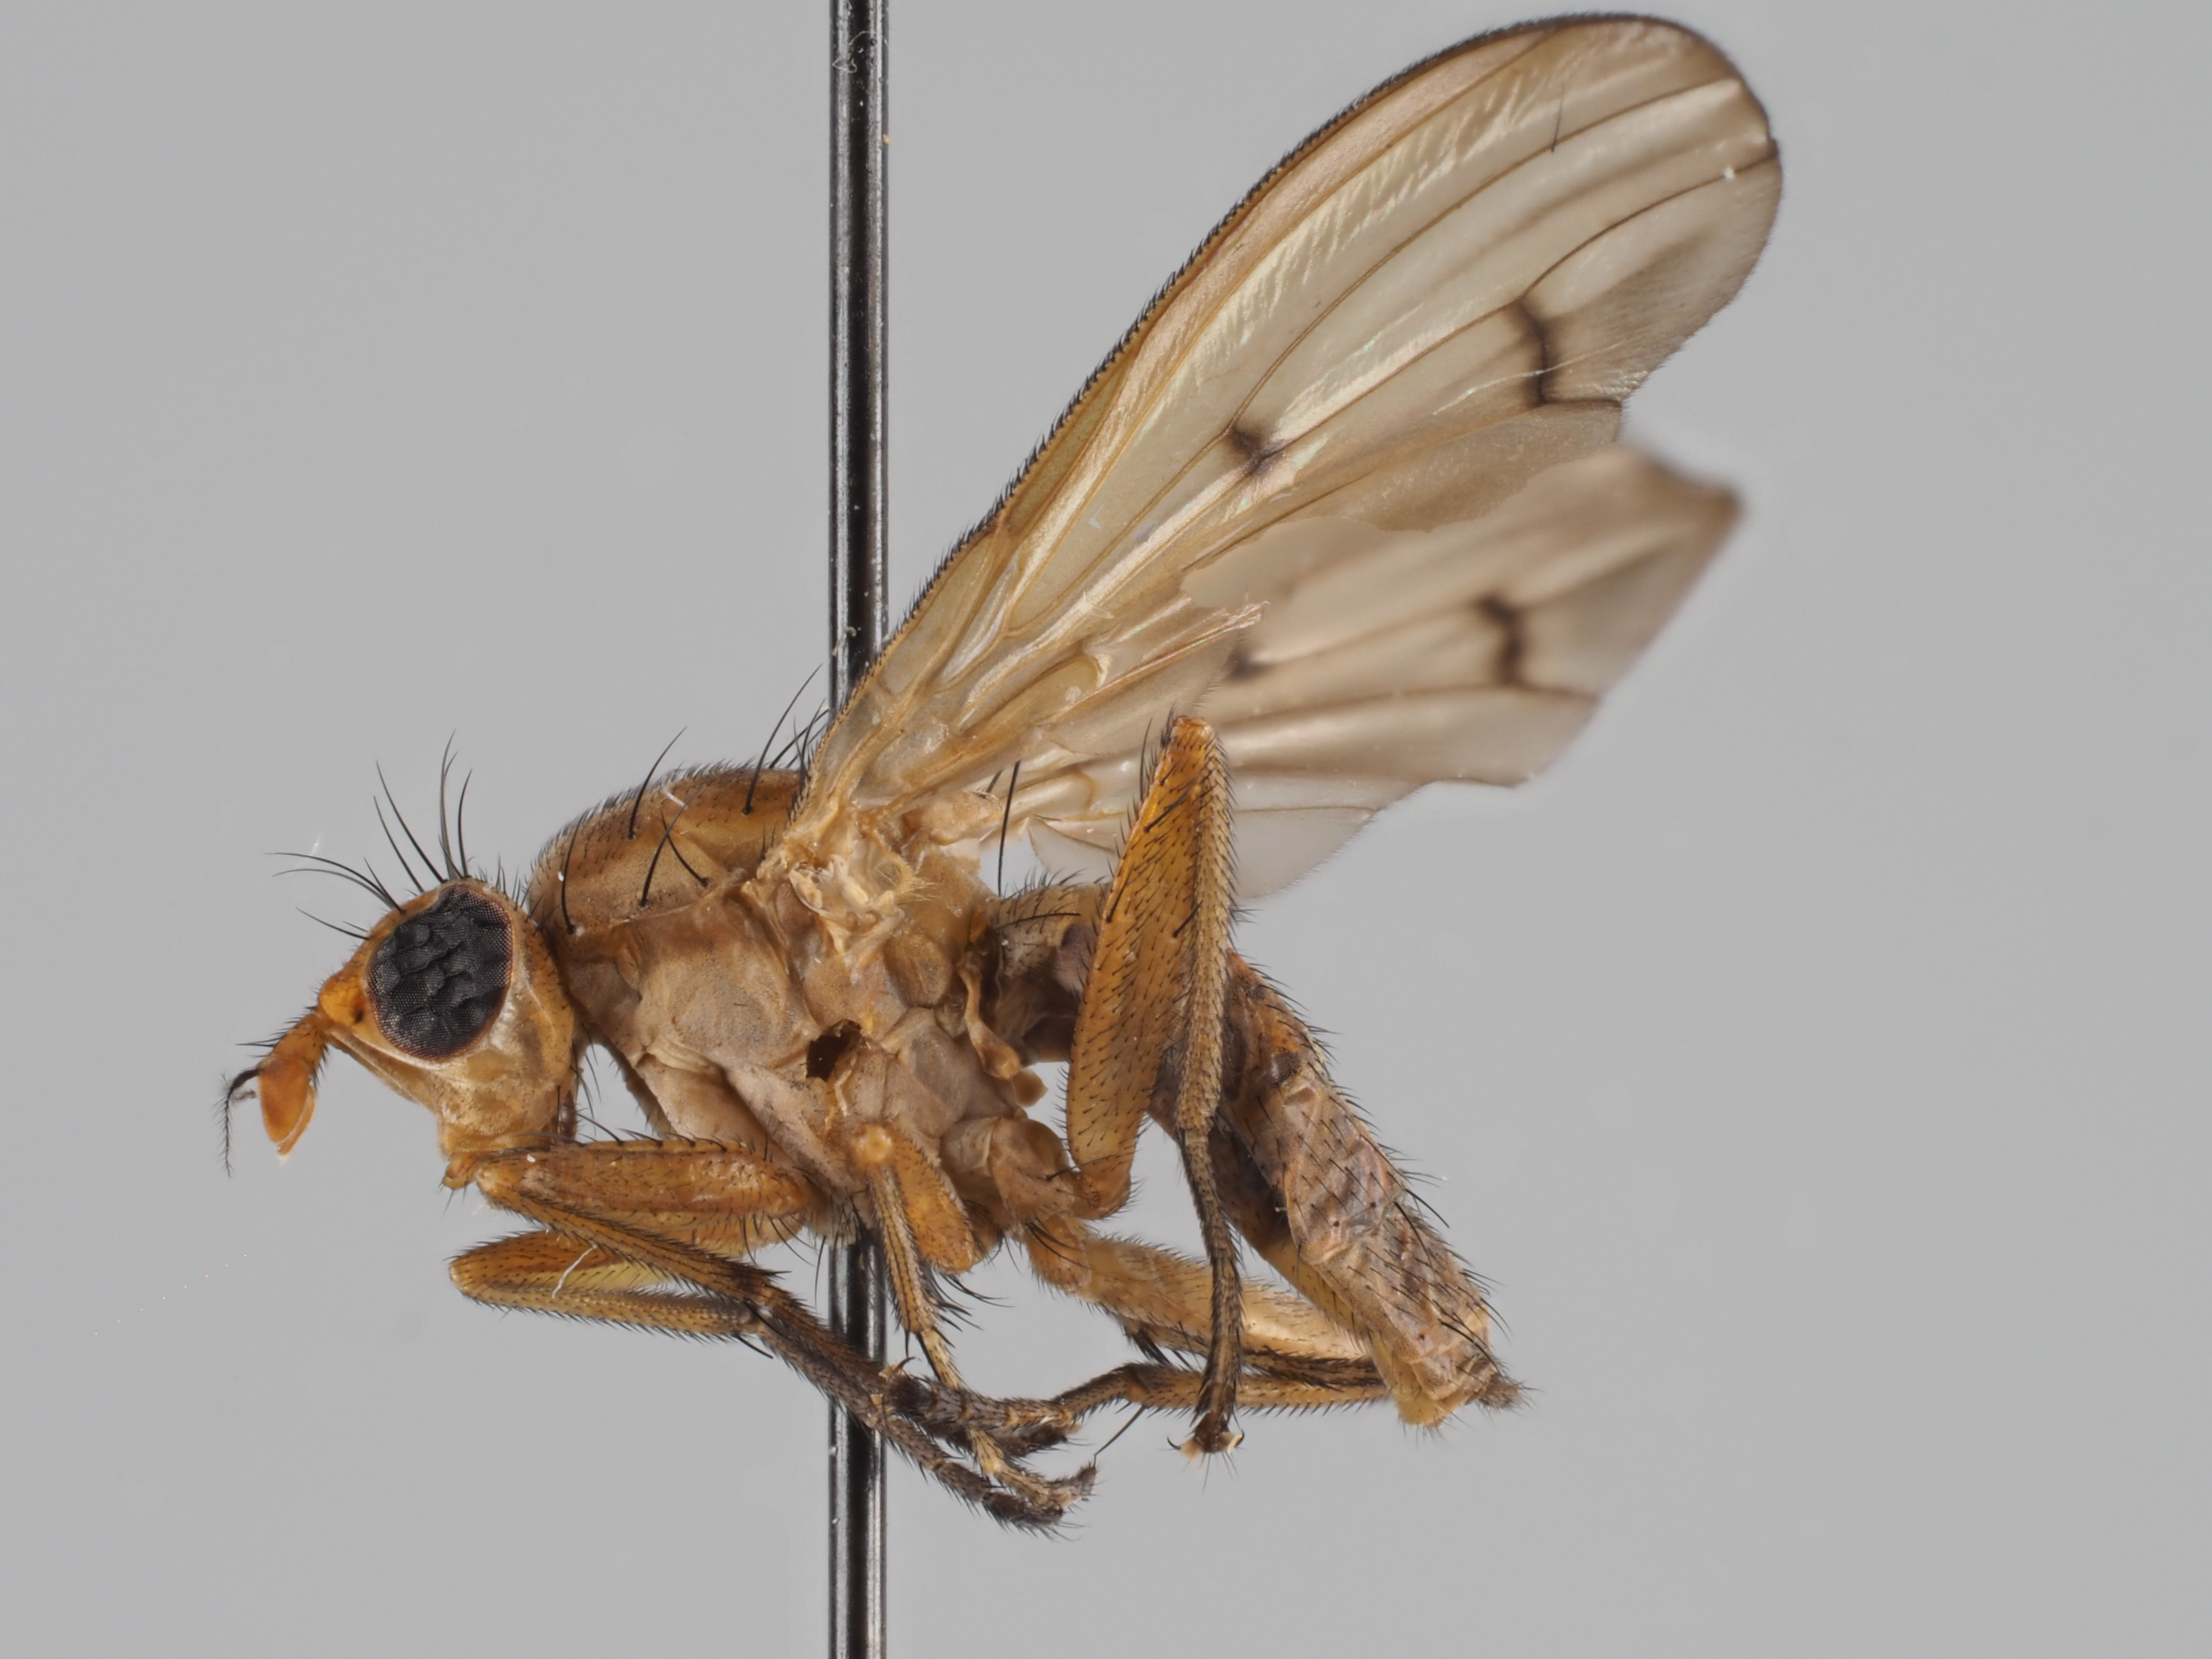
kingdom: Animalia
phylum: Arthropoda
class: Insecta
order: Diptera
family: Sciomyzidae
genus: Tetanocera
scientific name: Tetanocera kerteszi
